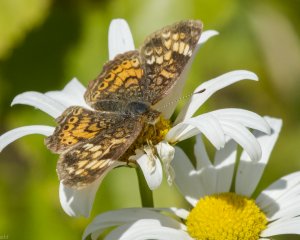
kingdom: Animalia
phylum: Arthropoda
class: Insecta
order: Lepidoptera
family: Nymphalidae
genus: Phyciodes
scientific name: Phyciodes tharos
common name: Northern Crescent
